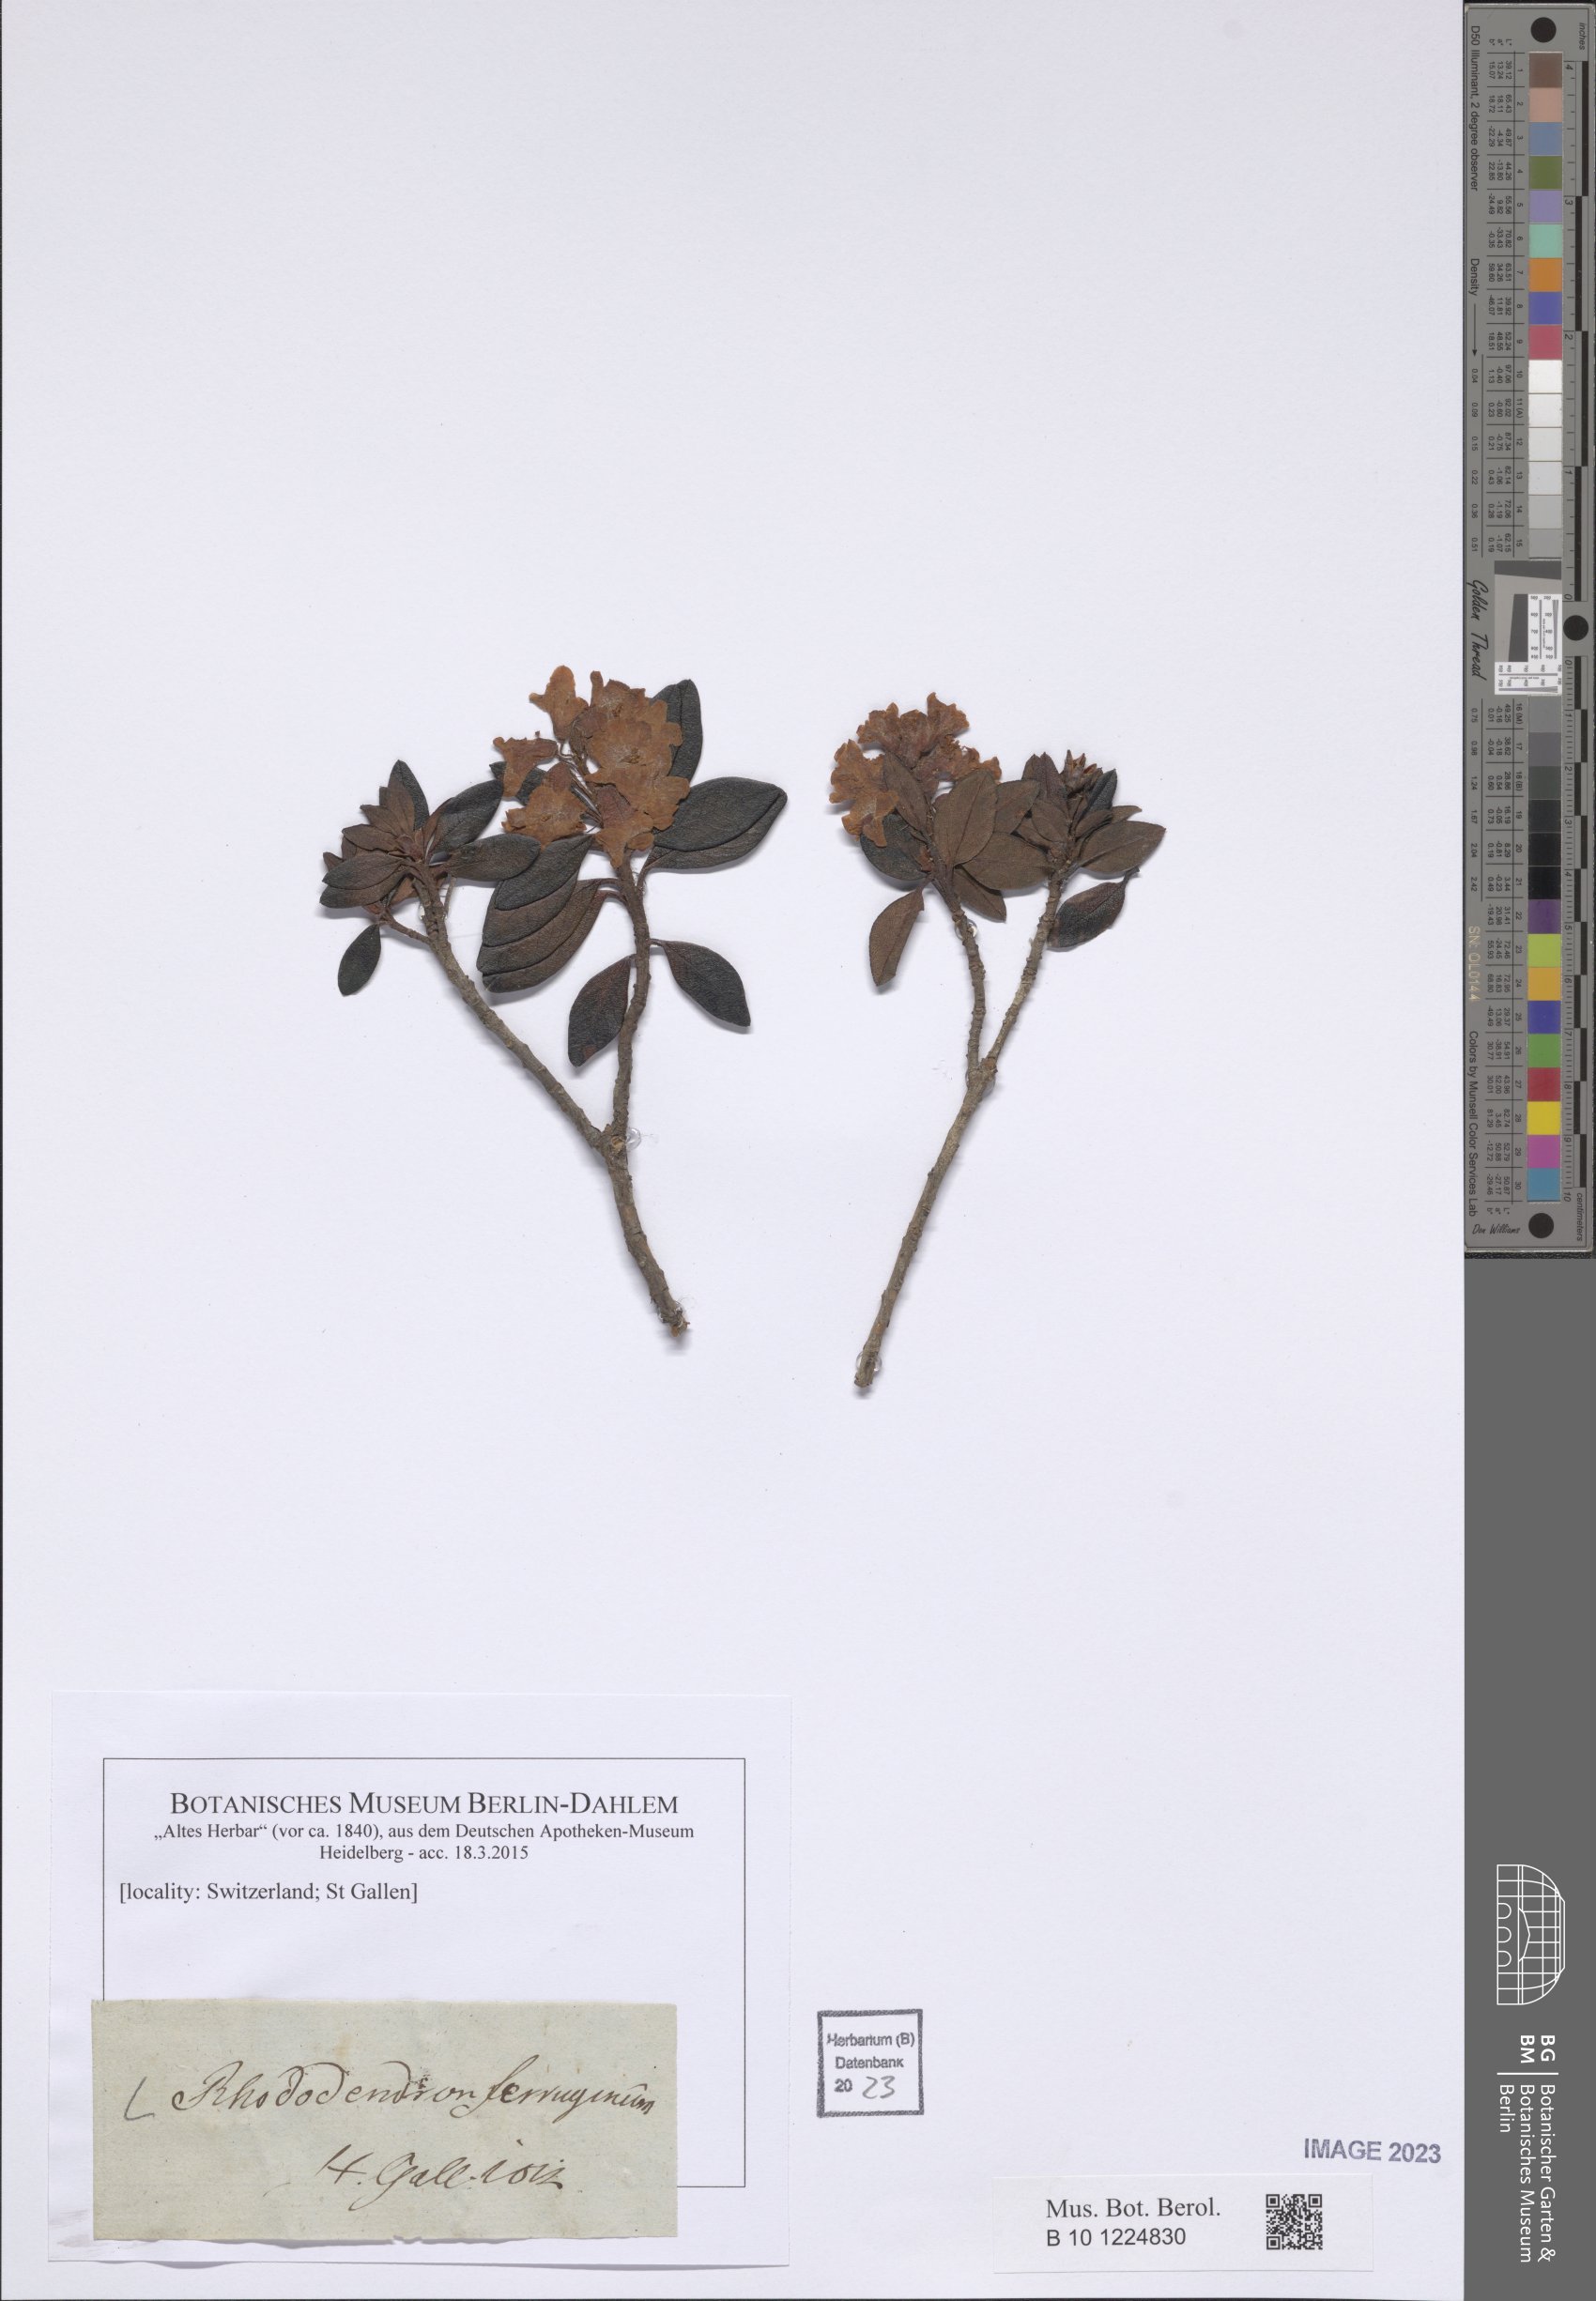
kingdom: Plantae
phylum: Tracheophyta
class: Magnoliopsida
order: Ericales
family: Ericaceae
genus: Rhododendron
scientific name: Rhododendron ferrugineum
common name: Alpenrose
